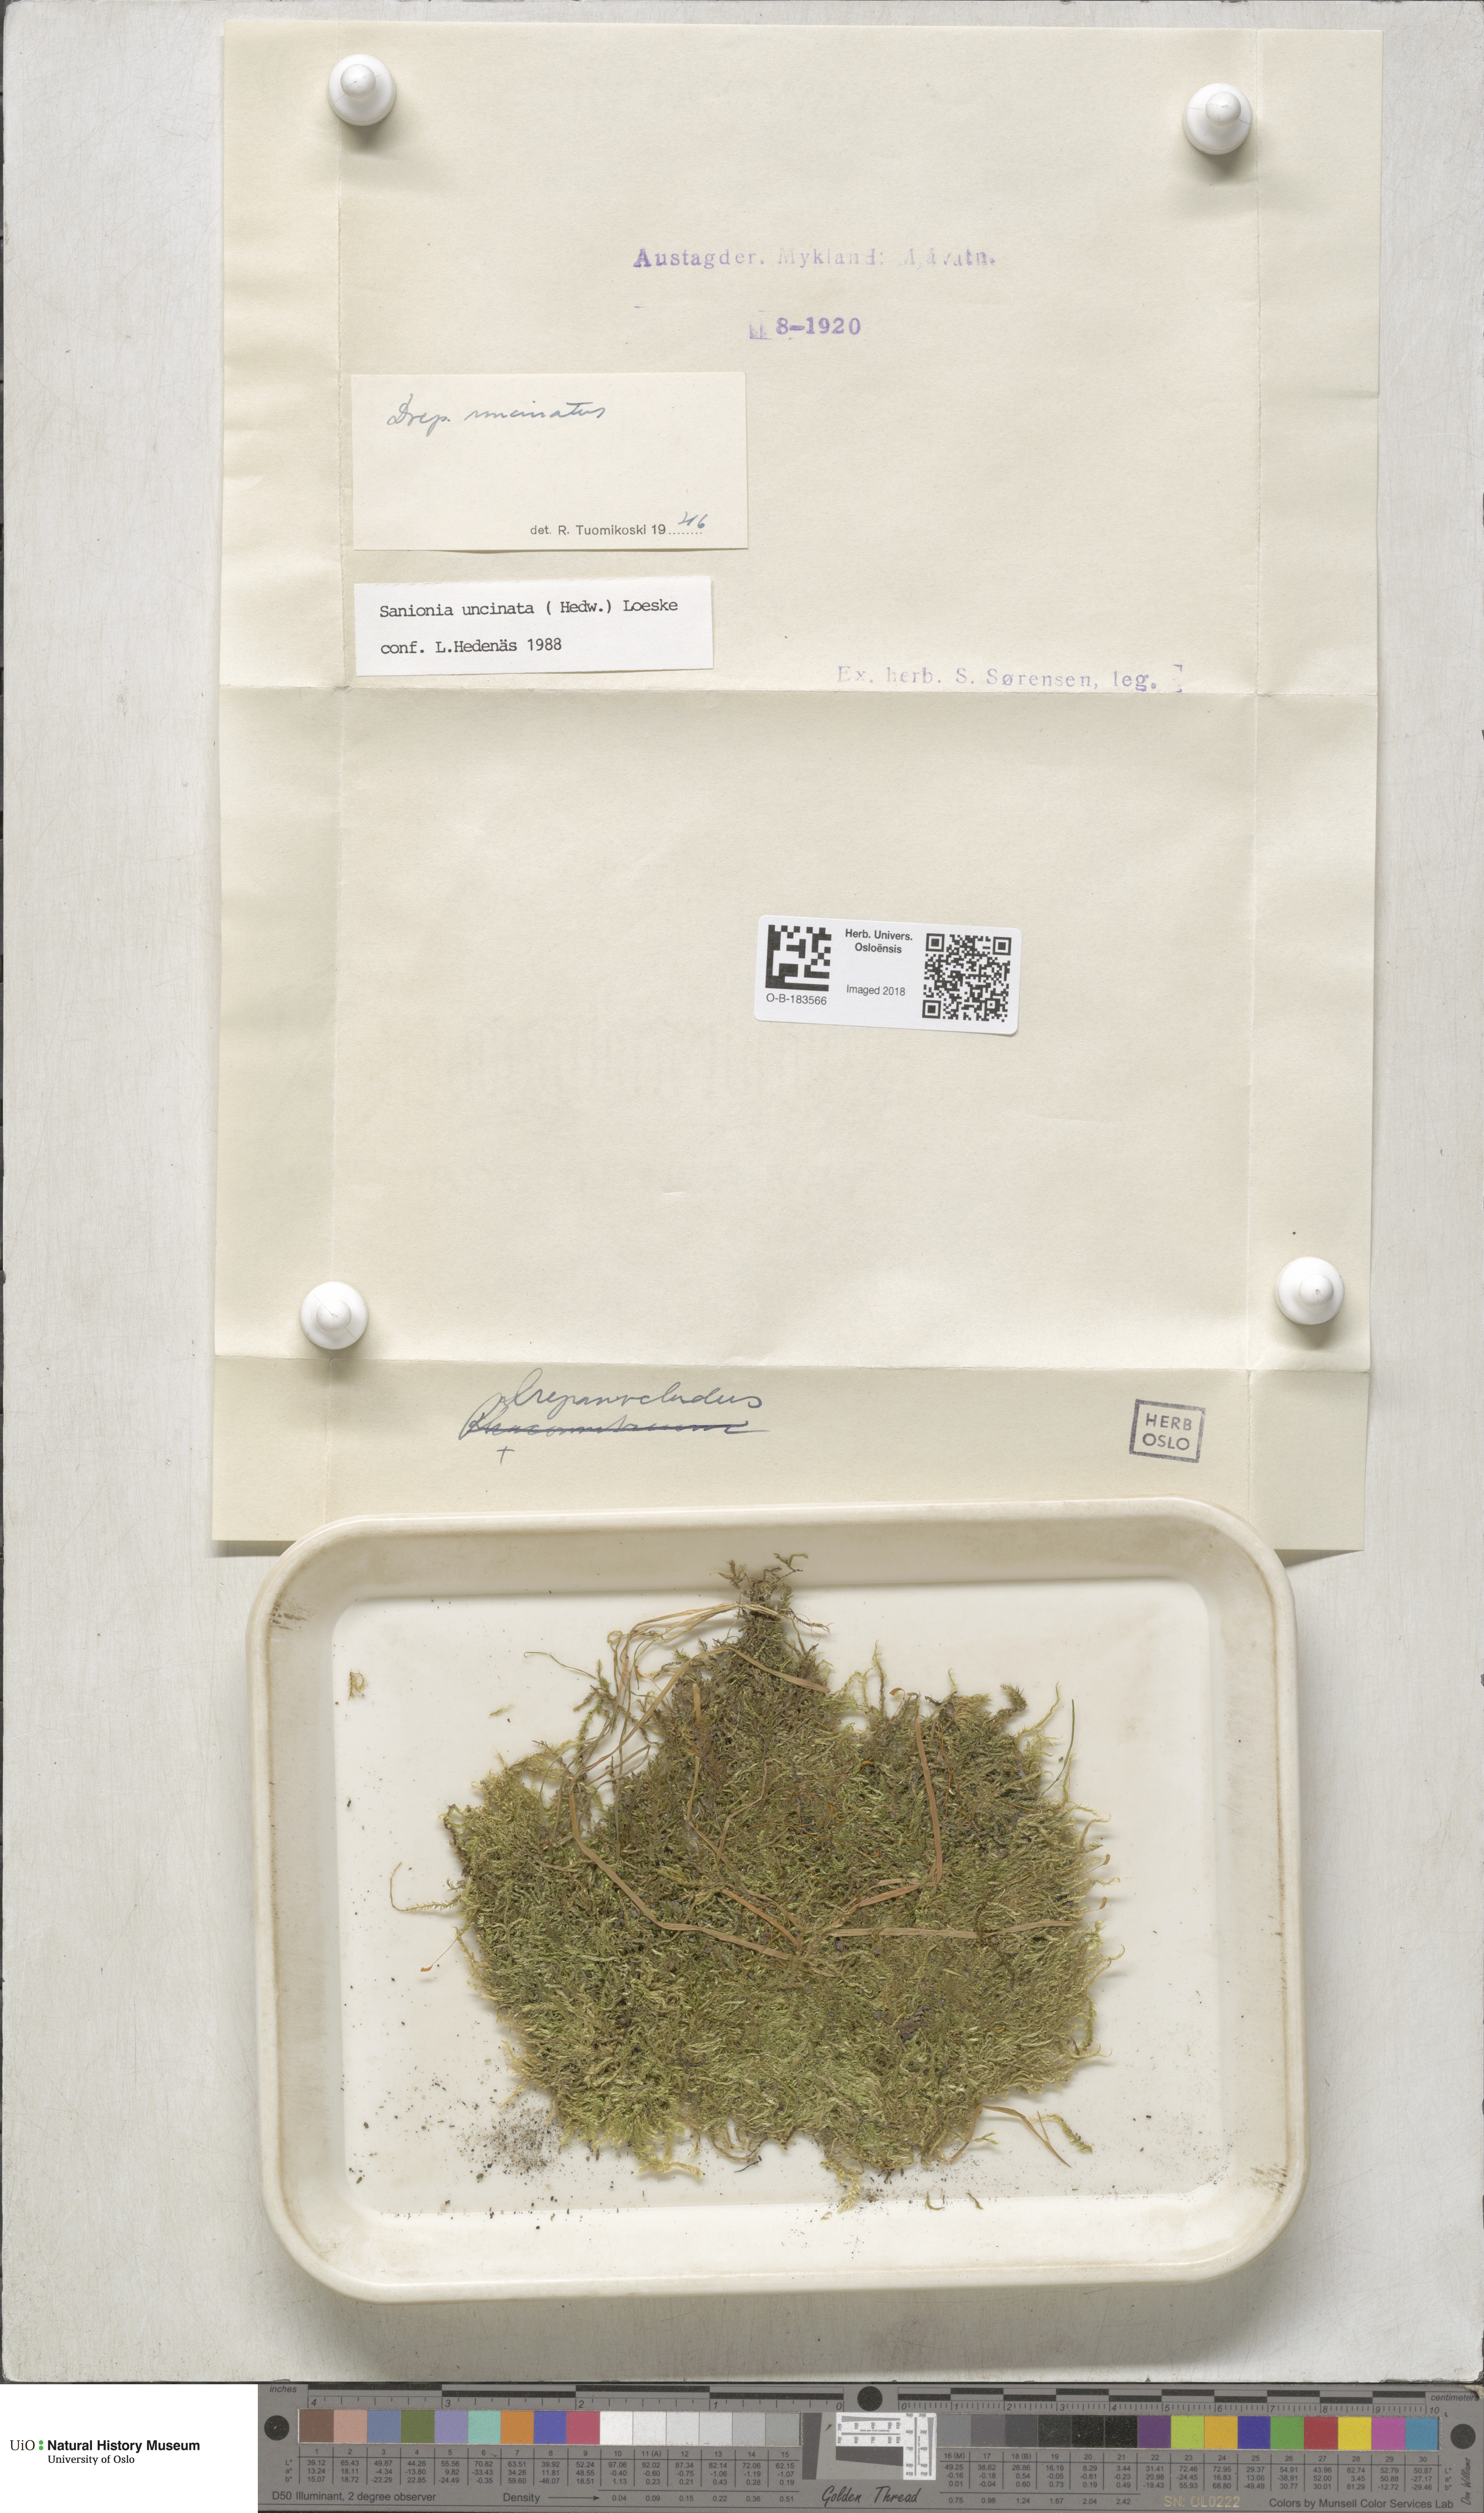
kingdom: Plantae
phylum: Bryophyta
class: Bryopsida
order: Hypnales
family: Scorpidiaceae
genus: Sanionia
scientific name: Sanionia uncinata
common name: Sickle moss
